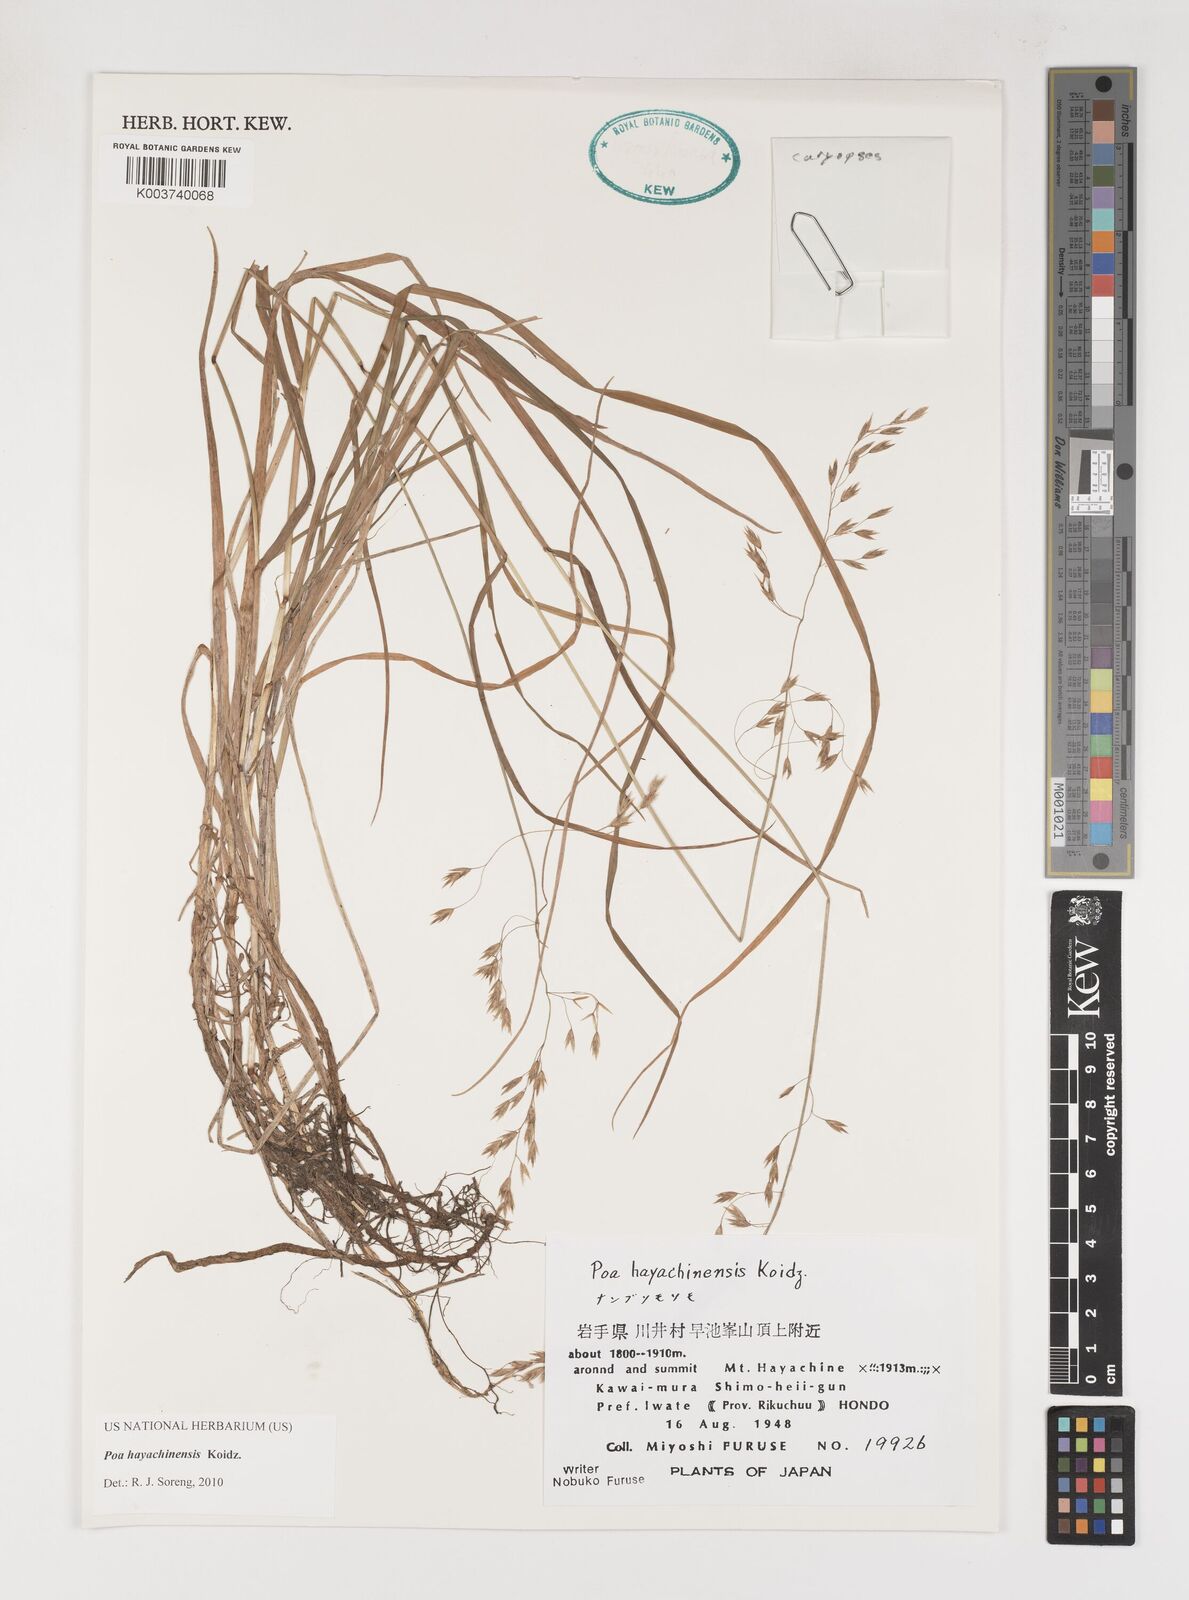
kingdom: Plantae
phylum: Tracheophyta
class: Liliopsida
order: Poales
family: Poaceae
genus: Dupontiopsis
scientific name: Dupontiopsis hayachinensis
